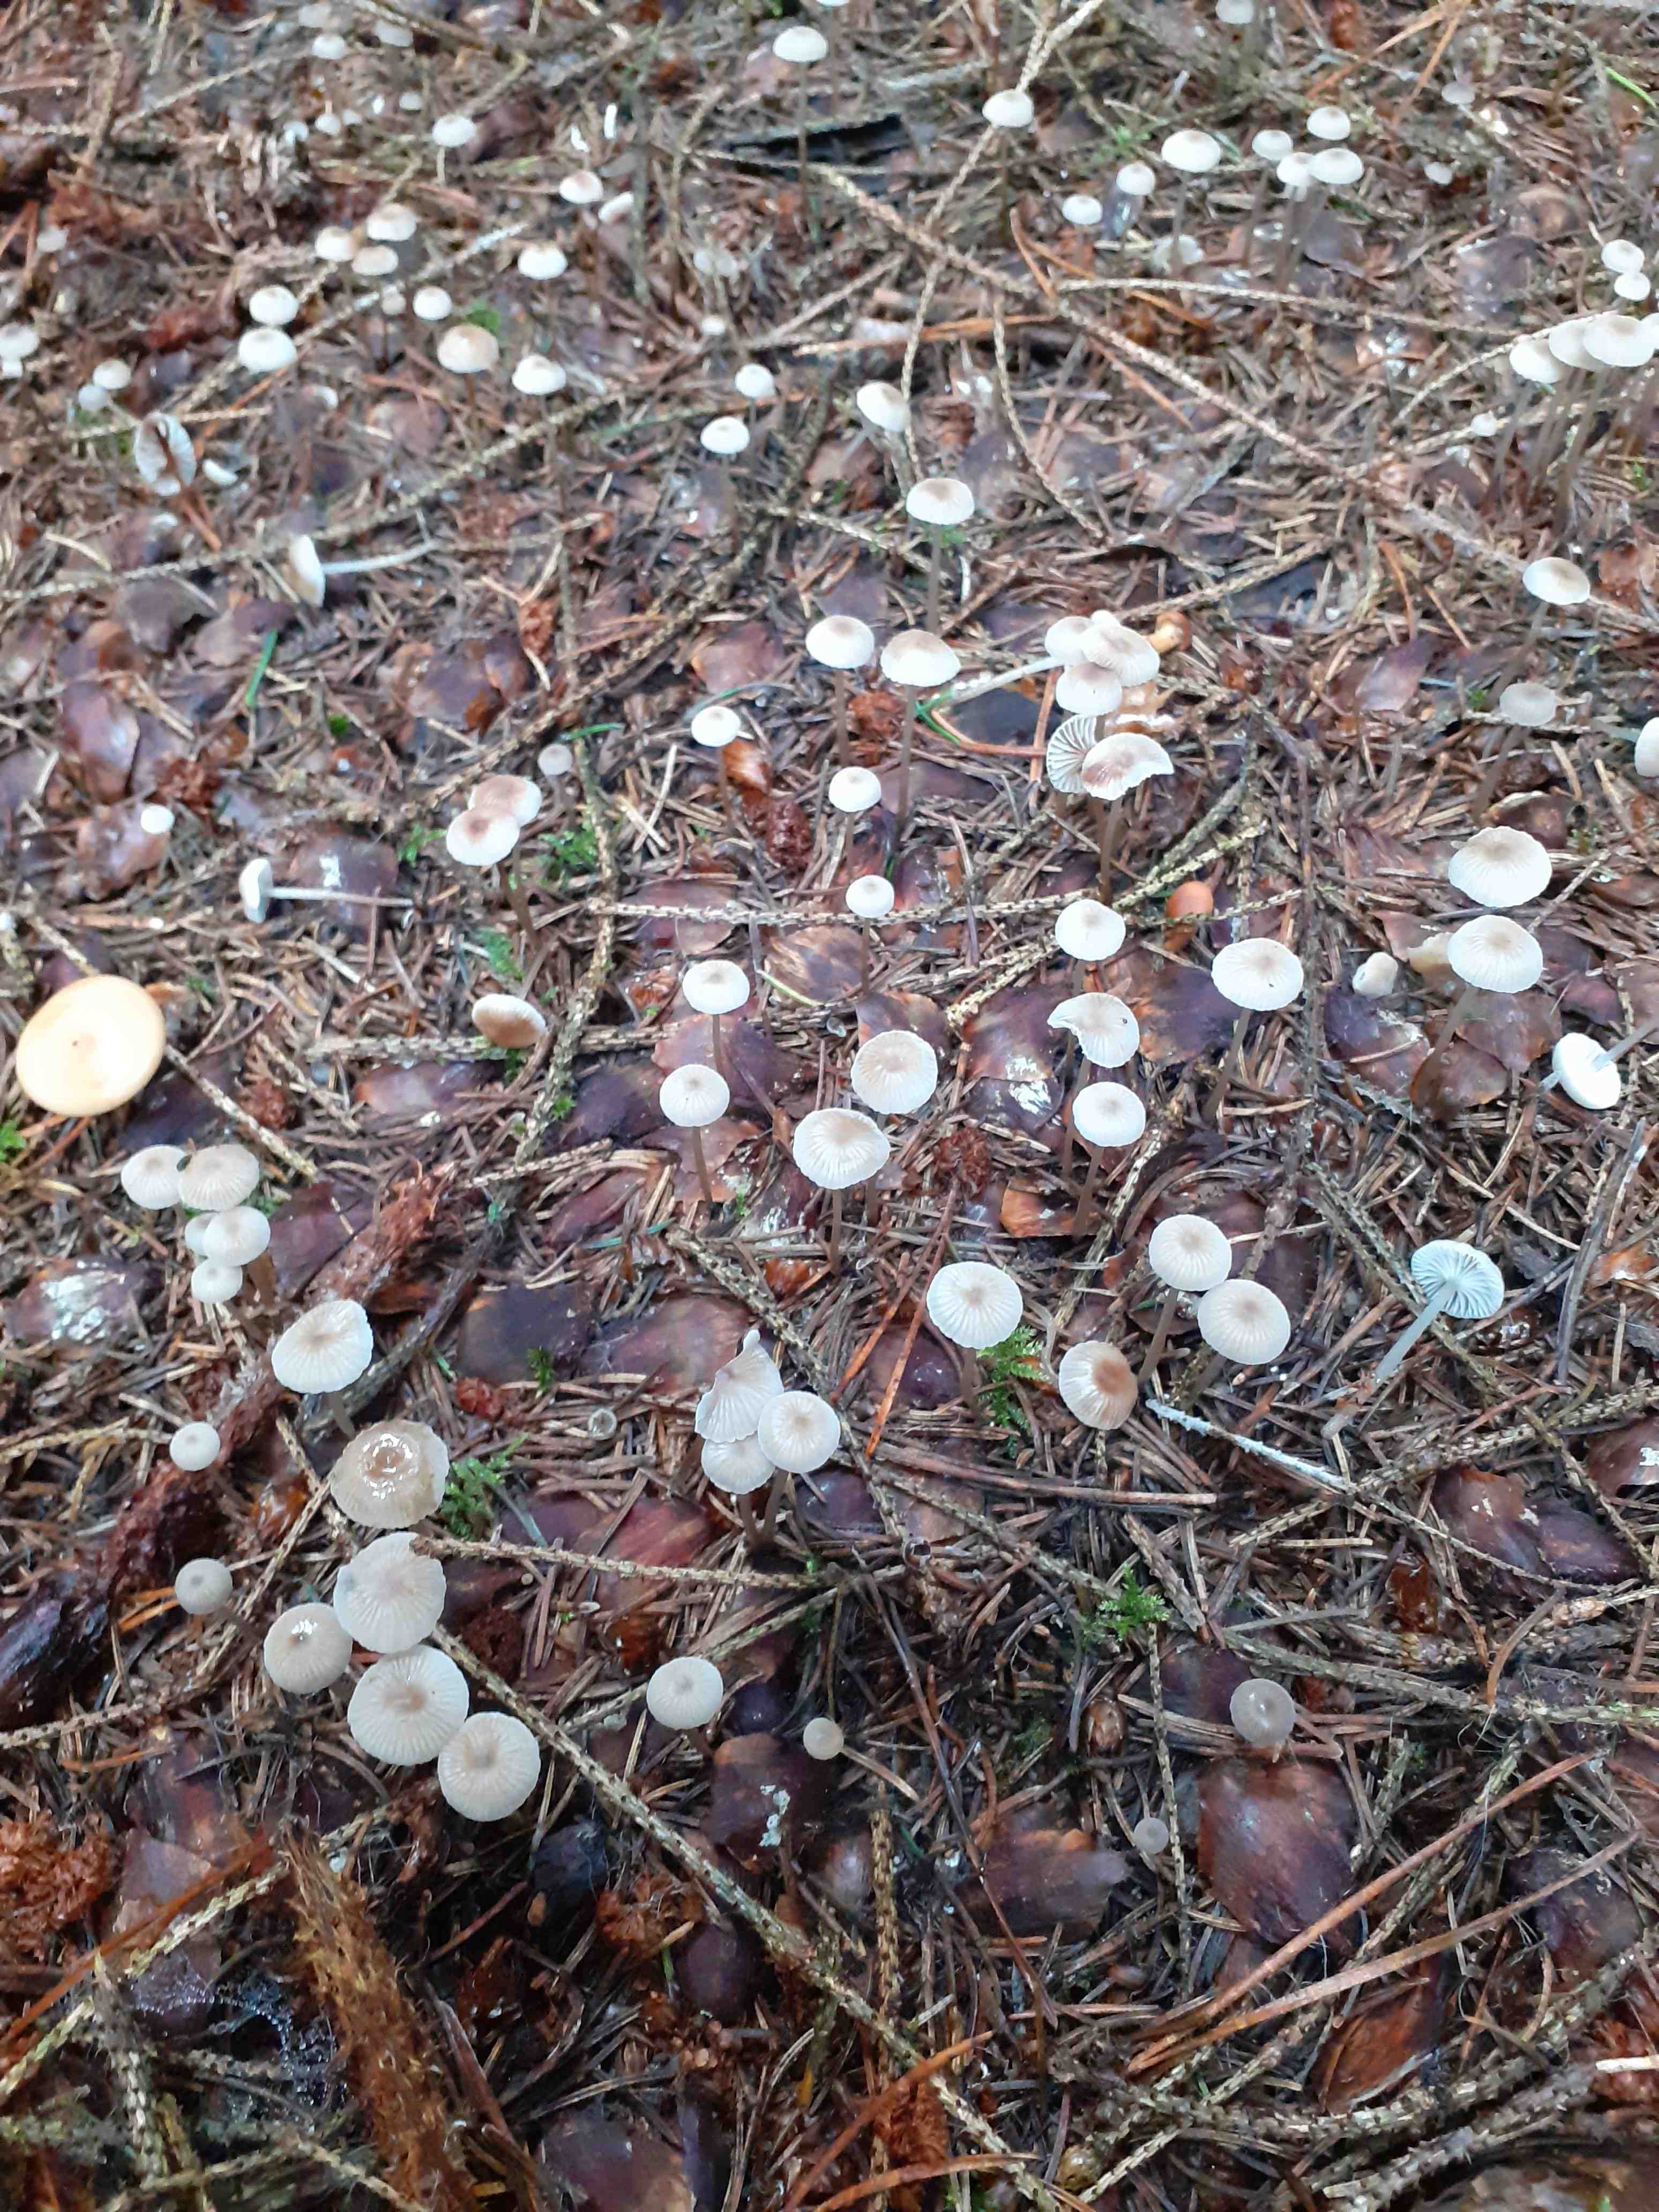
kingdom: Fungi
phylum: Basidiomycota
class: Agaricomycetes
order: Agaricales
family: Mycenaceae
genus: Mycena
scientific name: Mycena vulgaris
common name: klæbrig huesvamp
